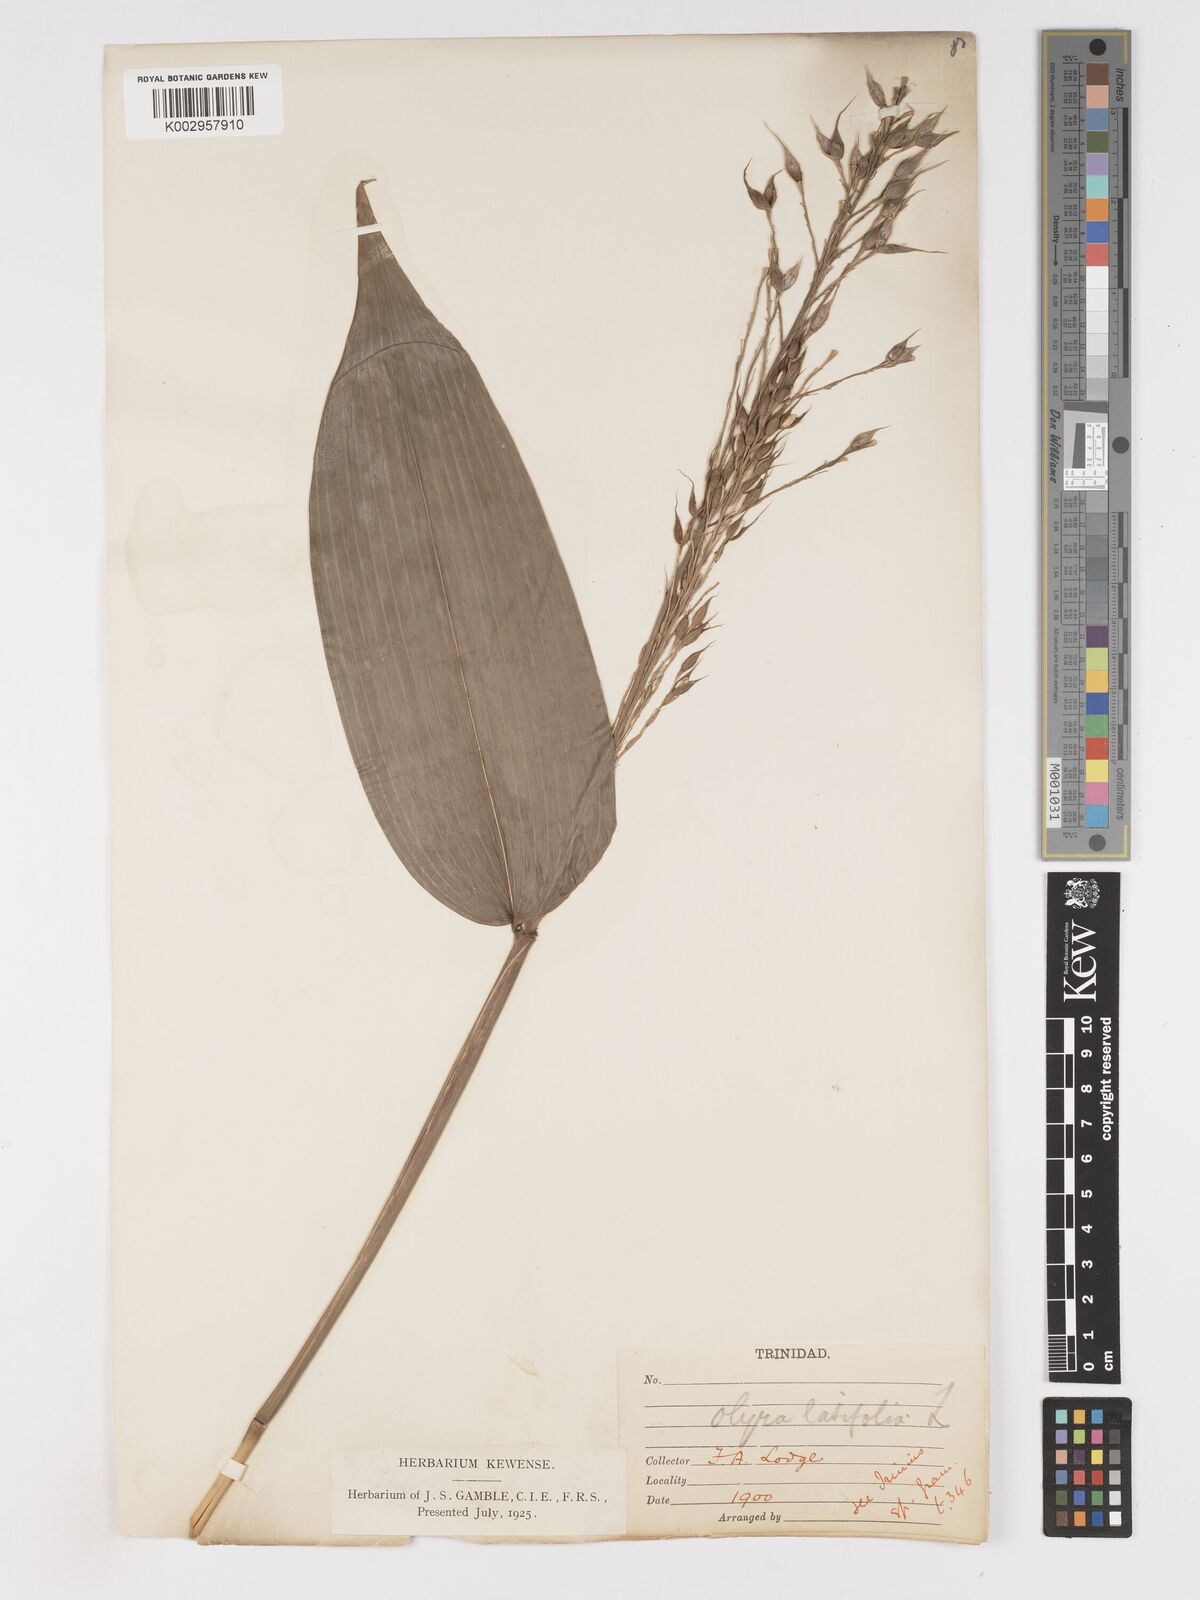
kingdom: Plantae
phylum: Tracheophyta
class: Liliopsida
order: Poales
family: Poaceae
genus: Olyra
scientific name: Olyra latifolia
